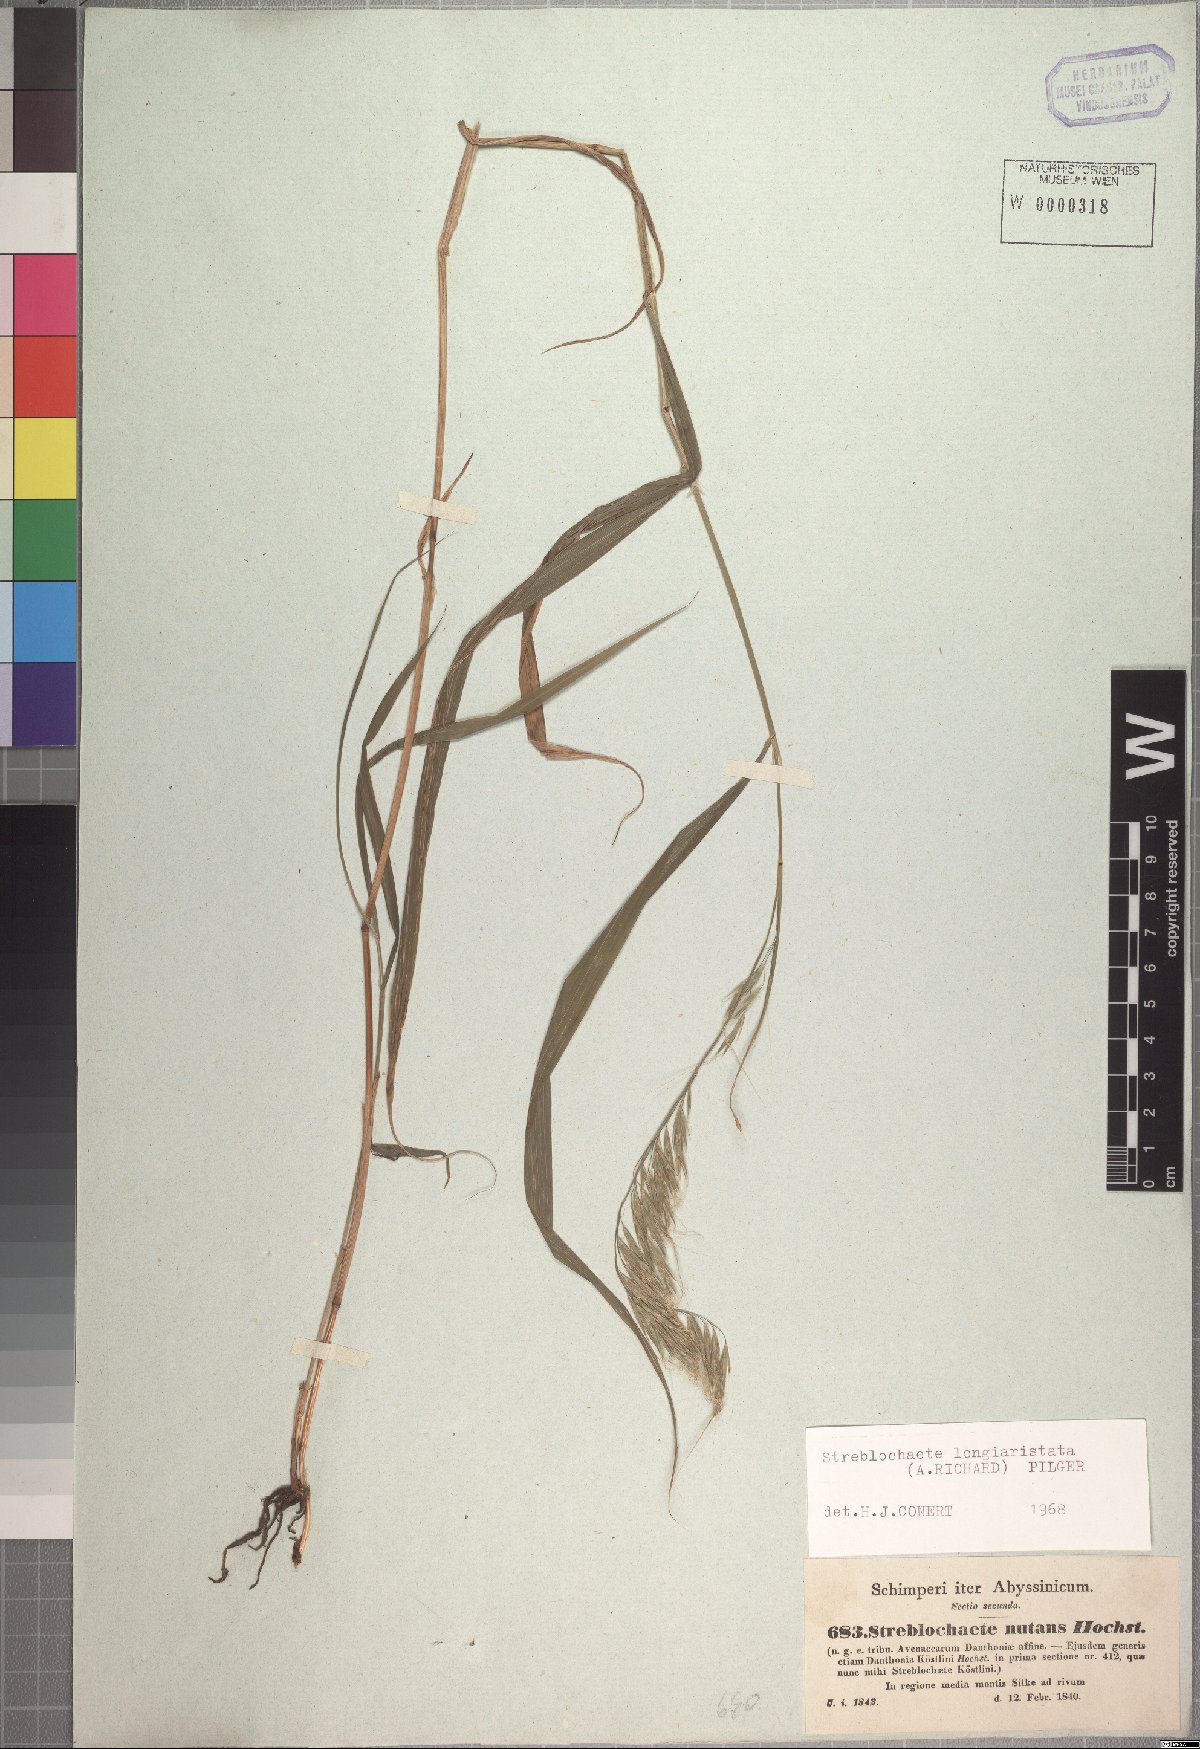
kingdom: Plantae
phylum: Tracheophyta
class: Liliopsida
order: Poales
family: Poaceae
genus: Koordersiochloa
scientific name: Koordersiochloa longiarista
